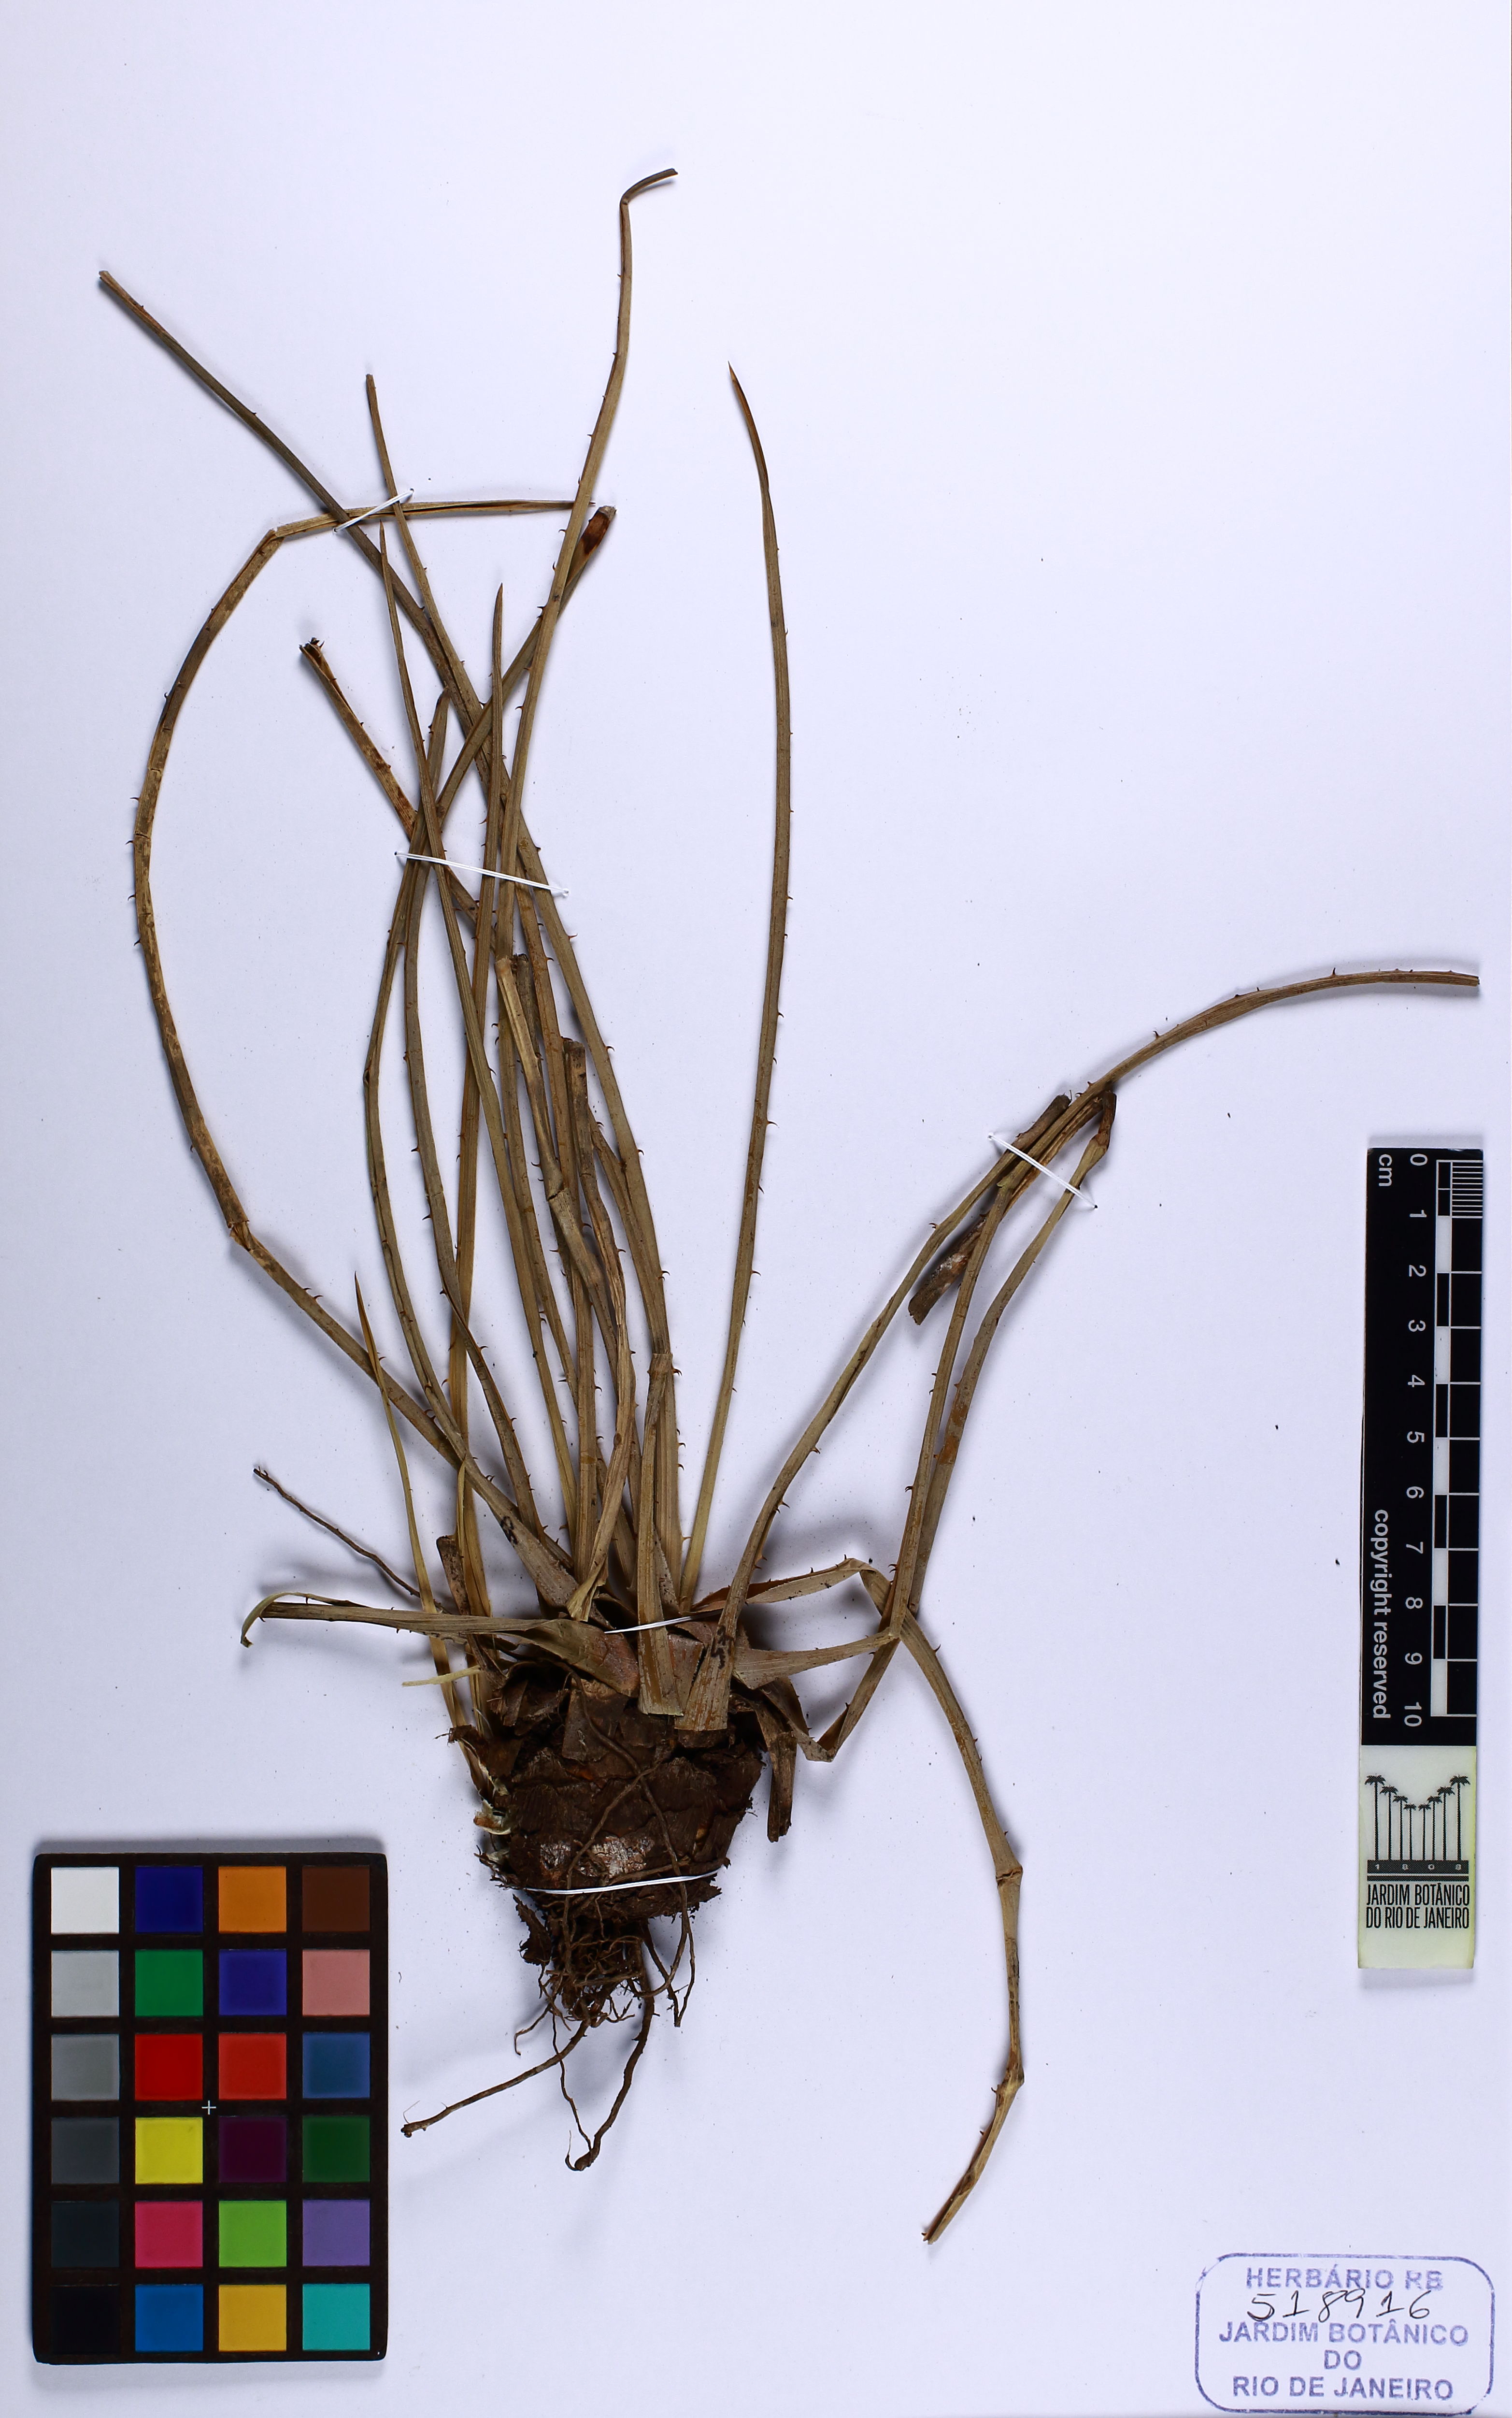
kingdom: Plantae
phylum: Tracheophyta
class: Liliopsida
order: Poales
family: Bromeliaceae
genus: Dyckia
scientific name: Dyckia tuberosa
